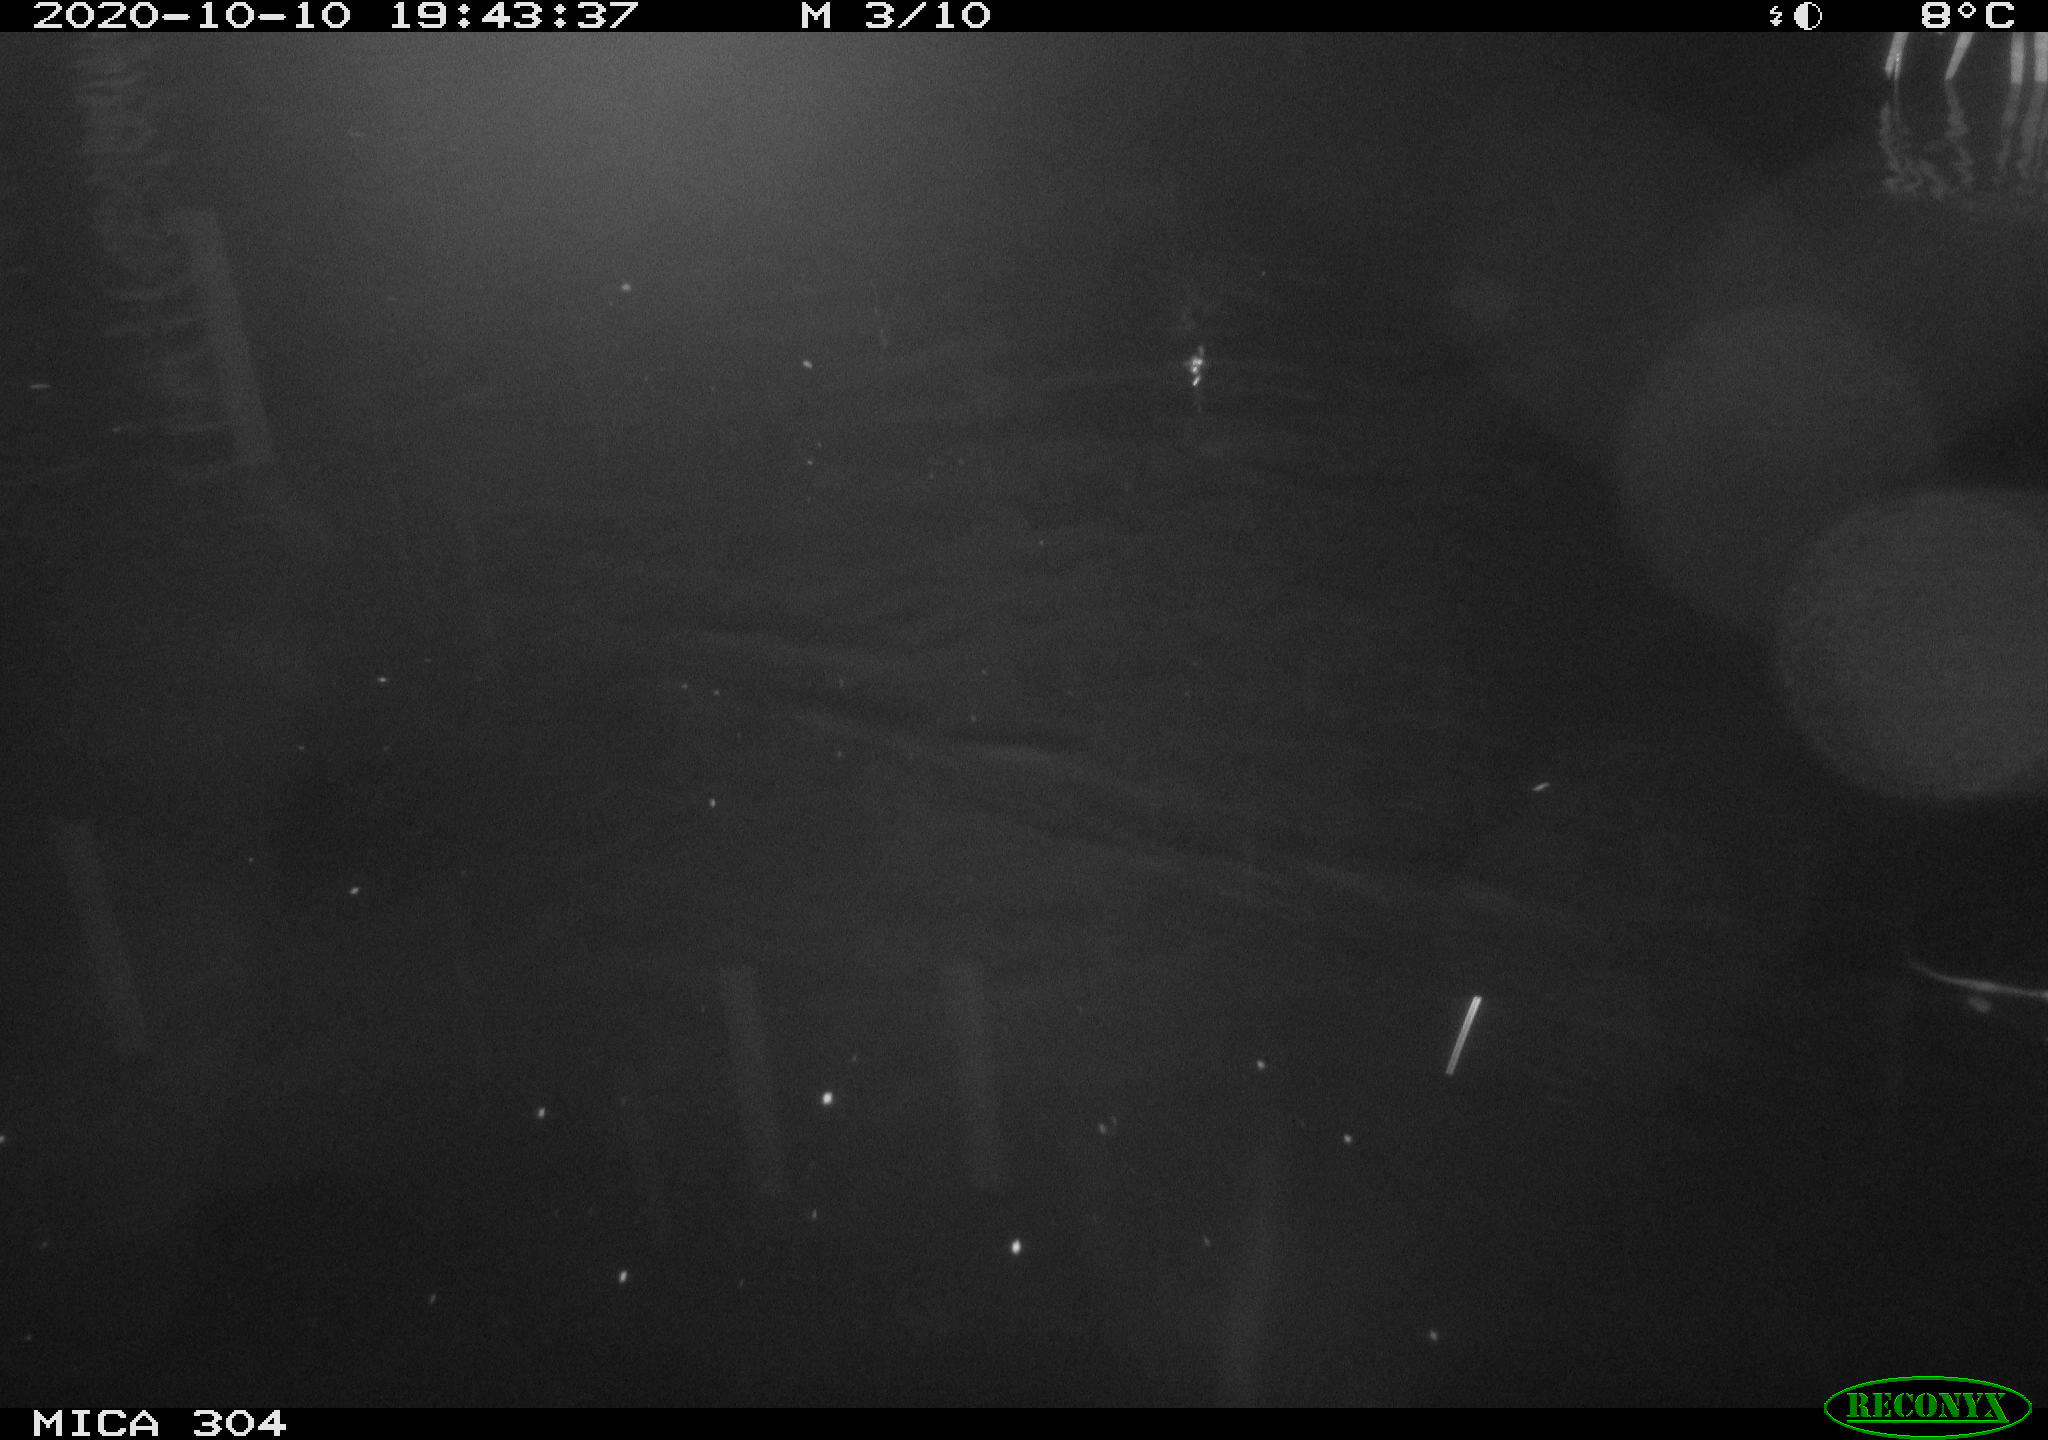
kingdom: Animalia
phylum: Chordata
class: Mammalia
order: Rodentia
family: Cricetidae
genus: Ondatra
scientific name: Ondatra zibethicus
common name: Muskrat
